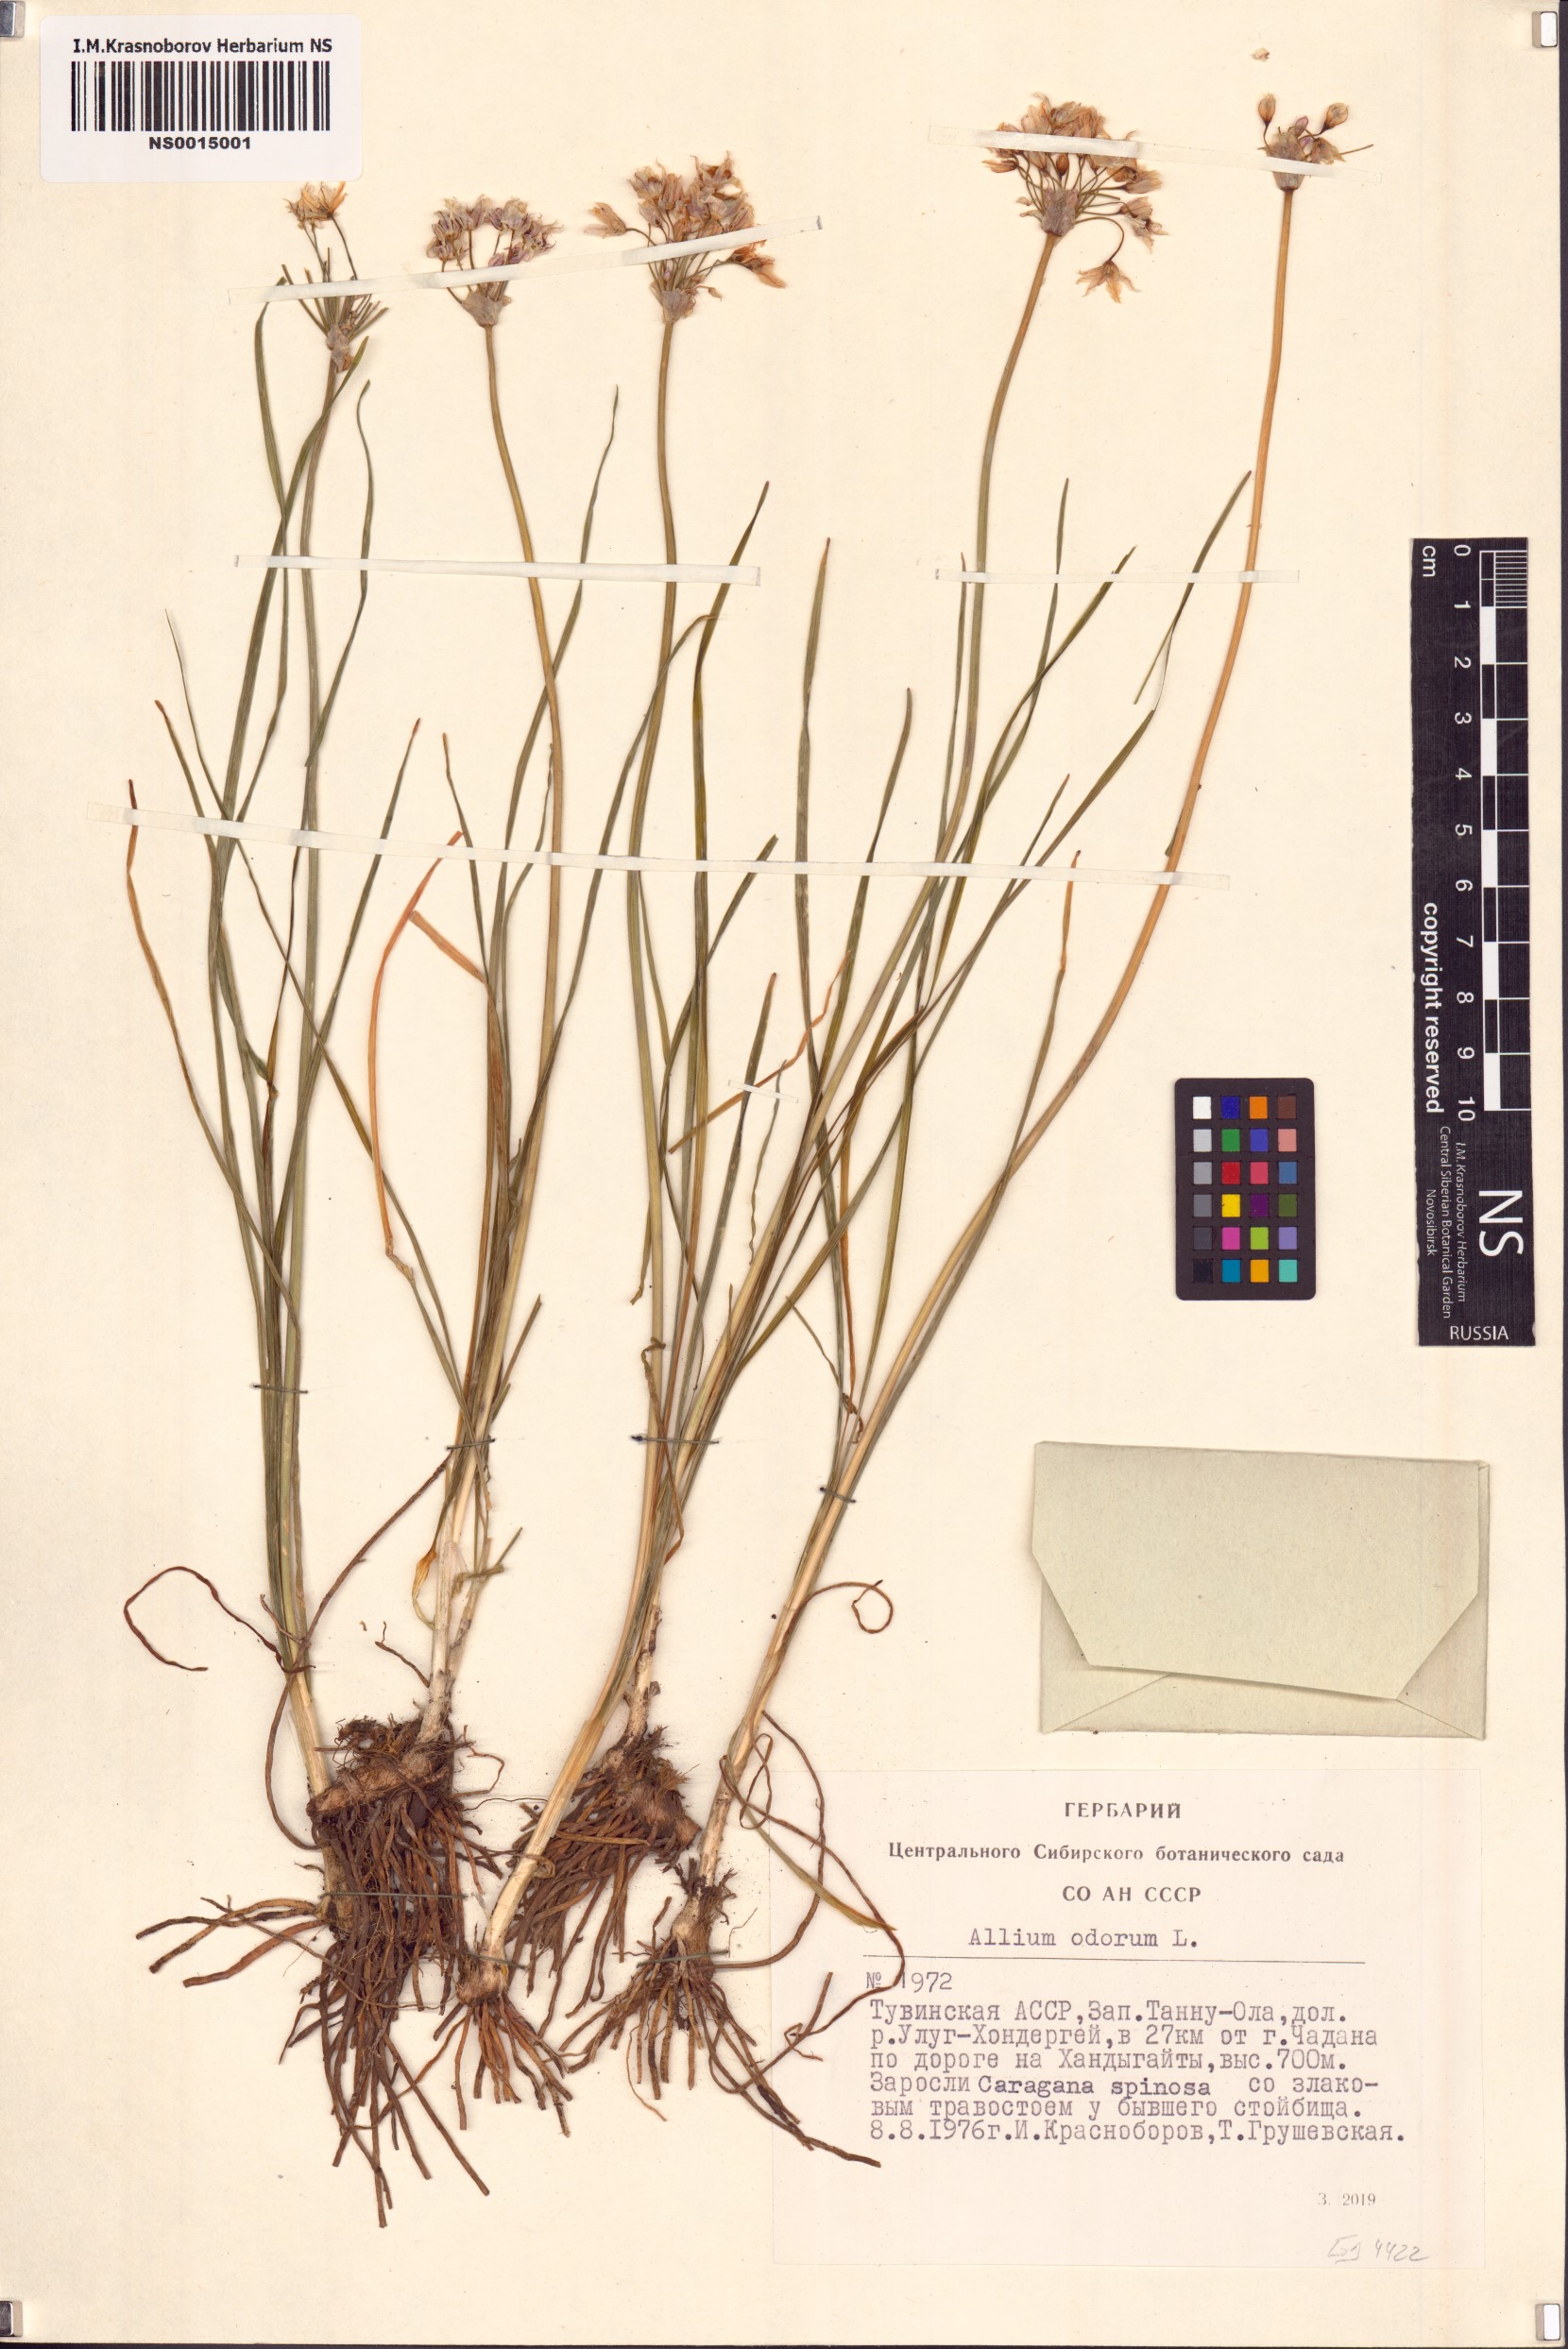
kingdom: Plantae
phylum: Tracheophyta
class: Liliopsida
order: Asparagales
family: Amaryllidaceae
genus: Allium
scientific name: Allium ramosum
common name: Fragrant garlic
